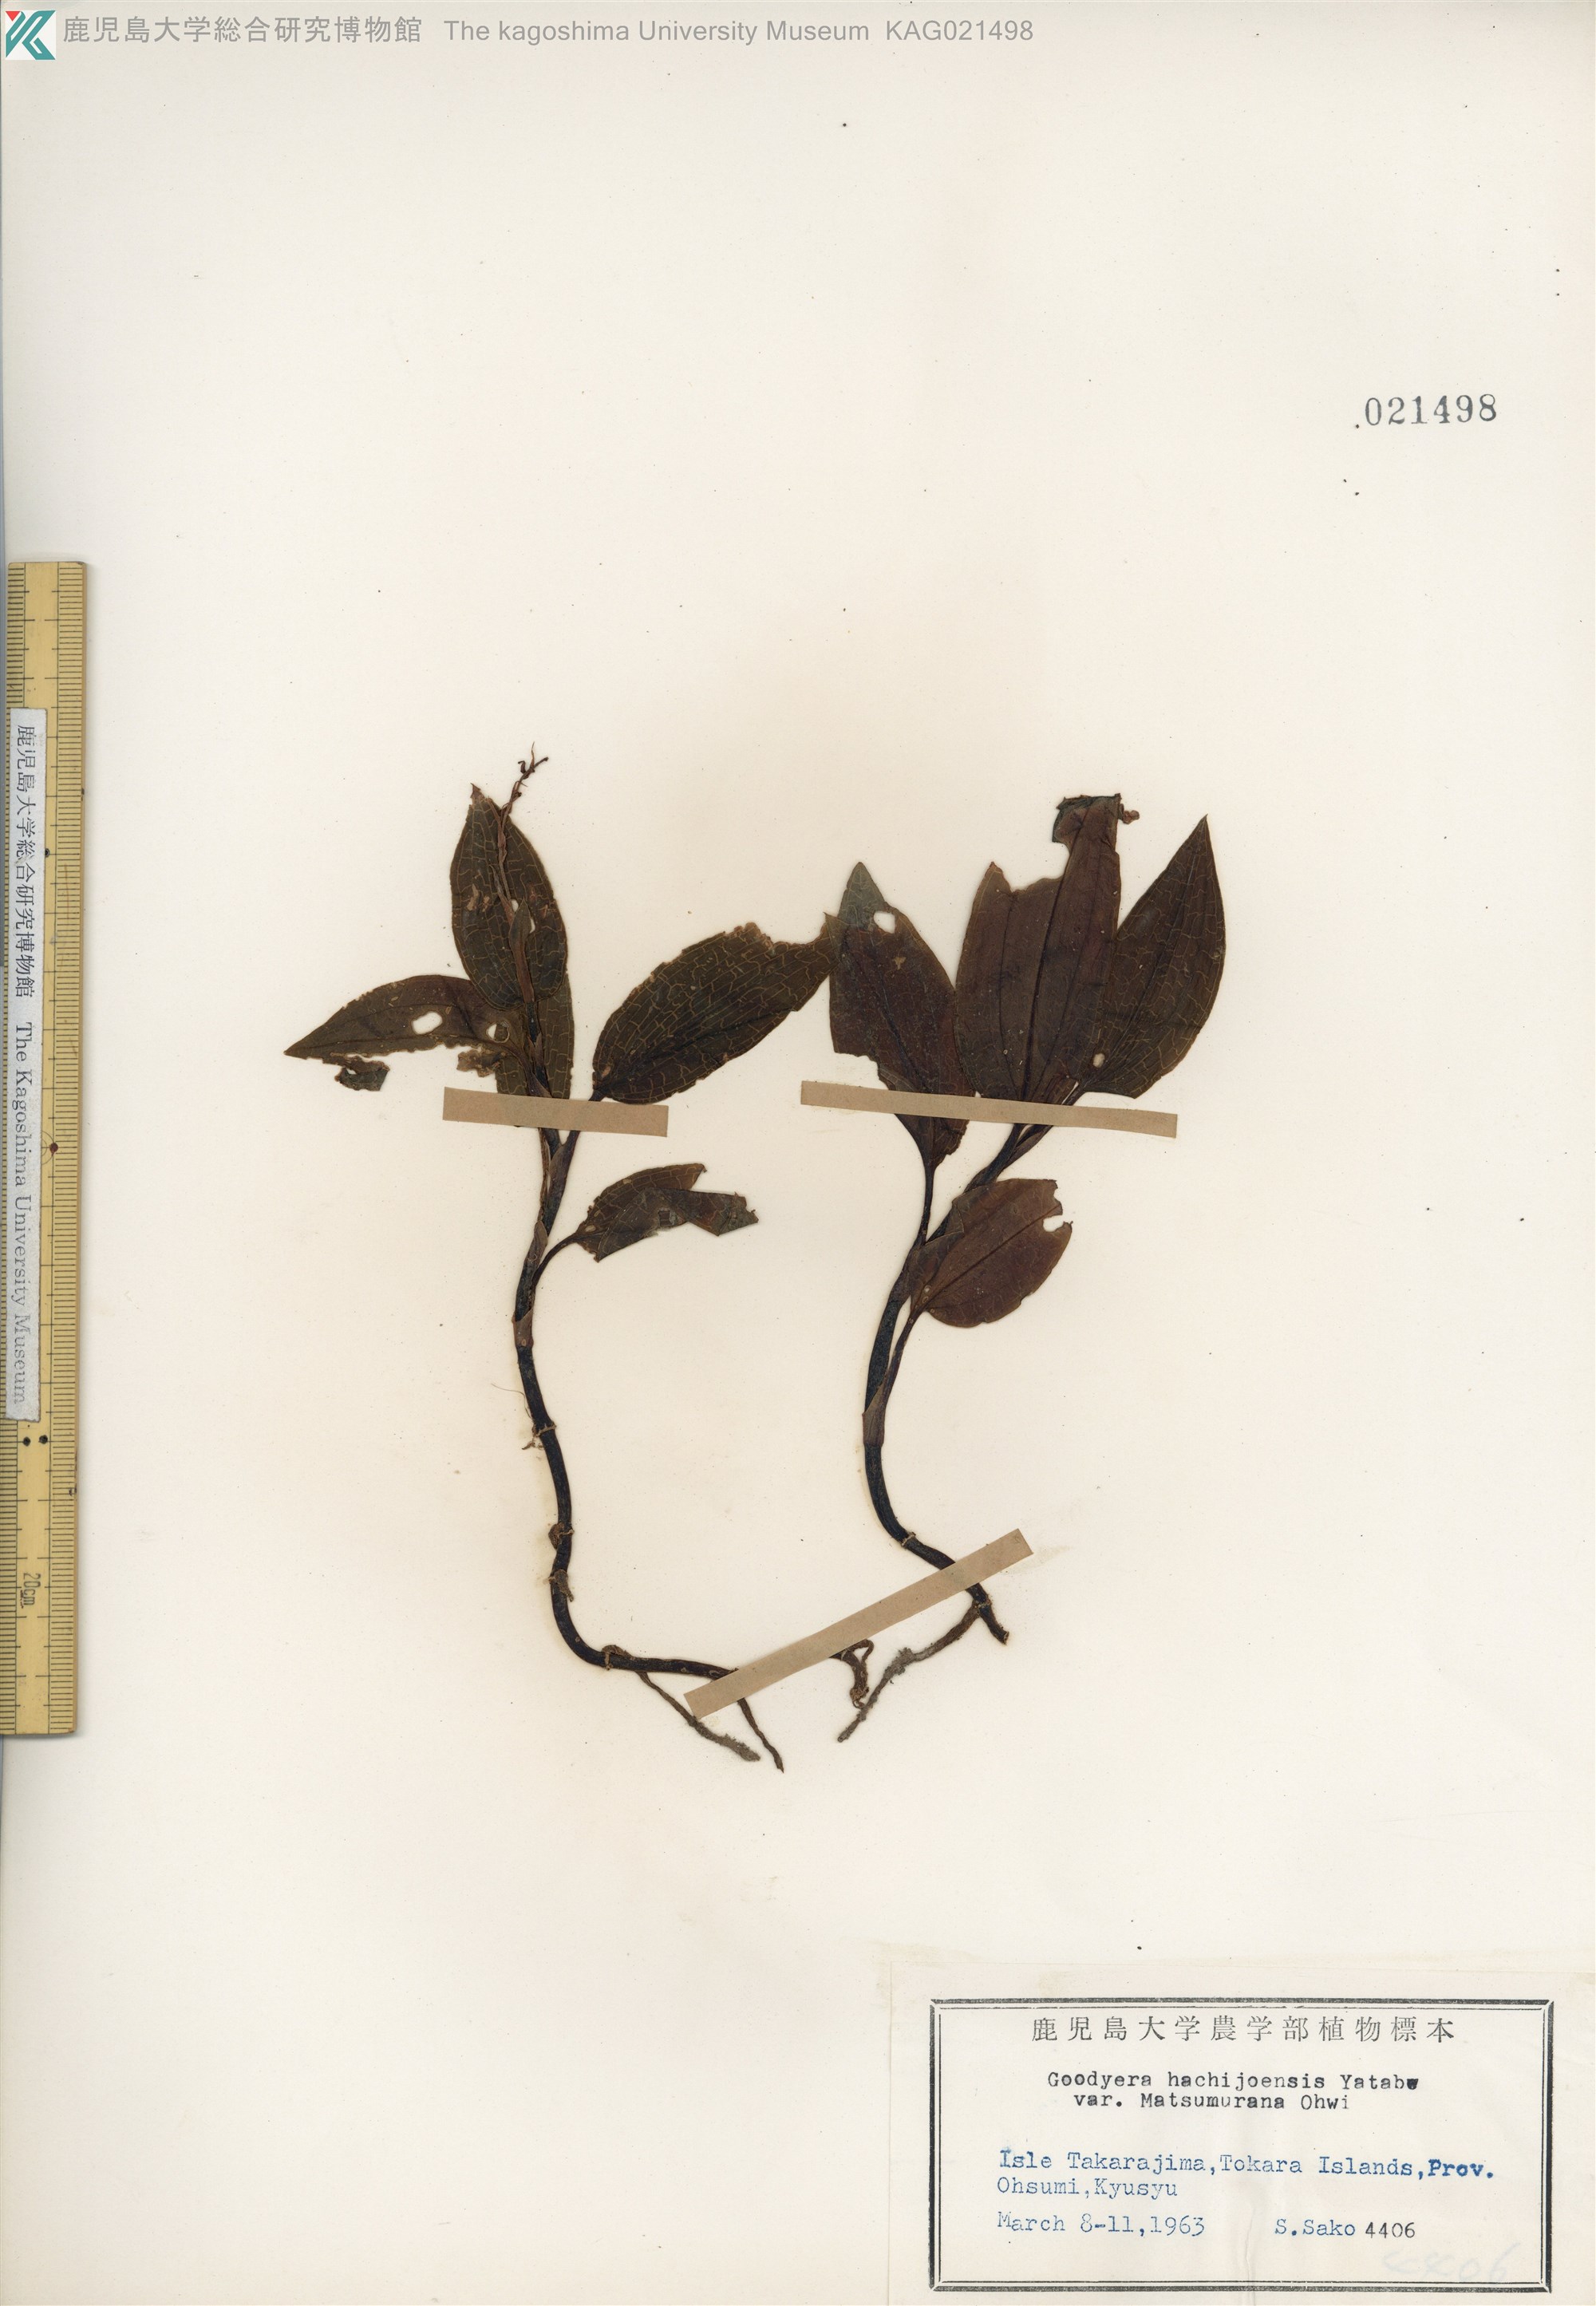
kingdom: Plantae
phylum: Tracheophyta
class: Liliopsida
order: Asparagales
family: Orchidaceae
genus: Goodyera
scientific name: Goodyera hachijoensis
